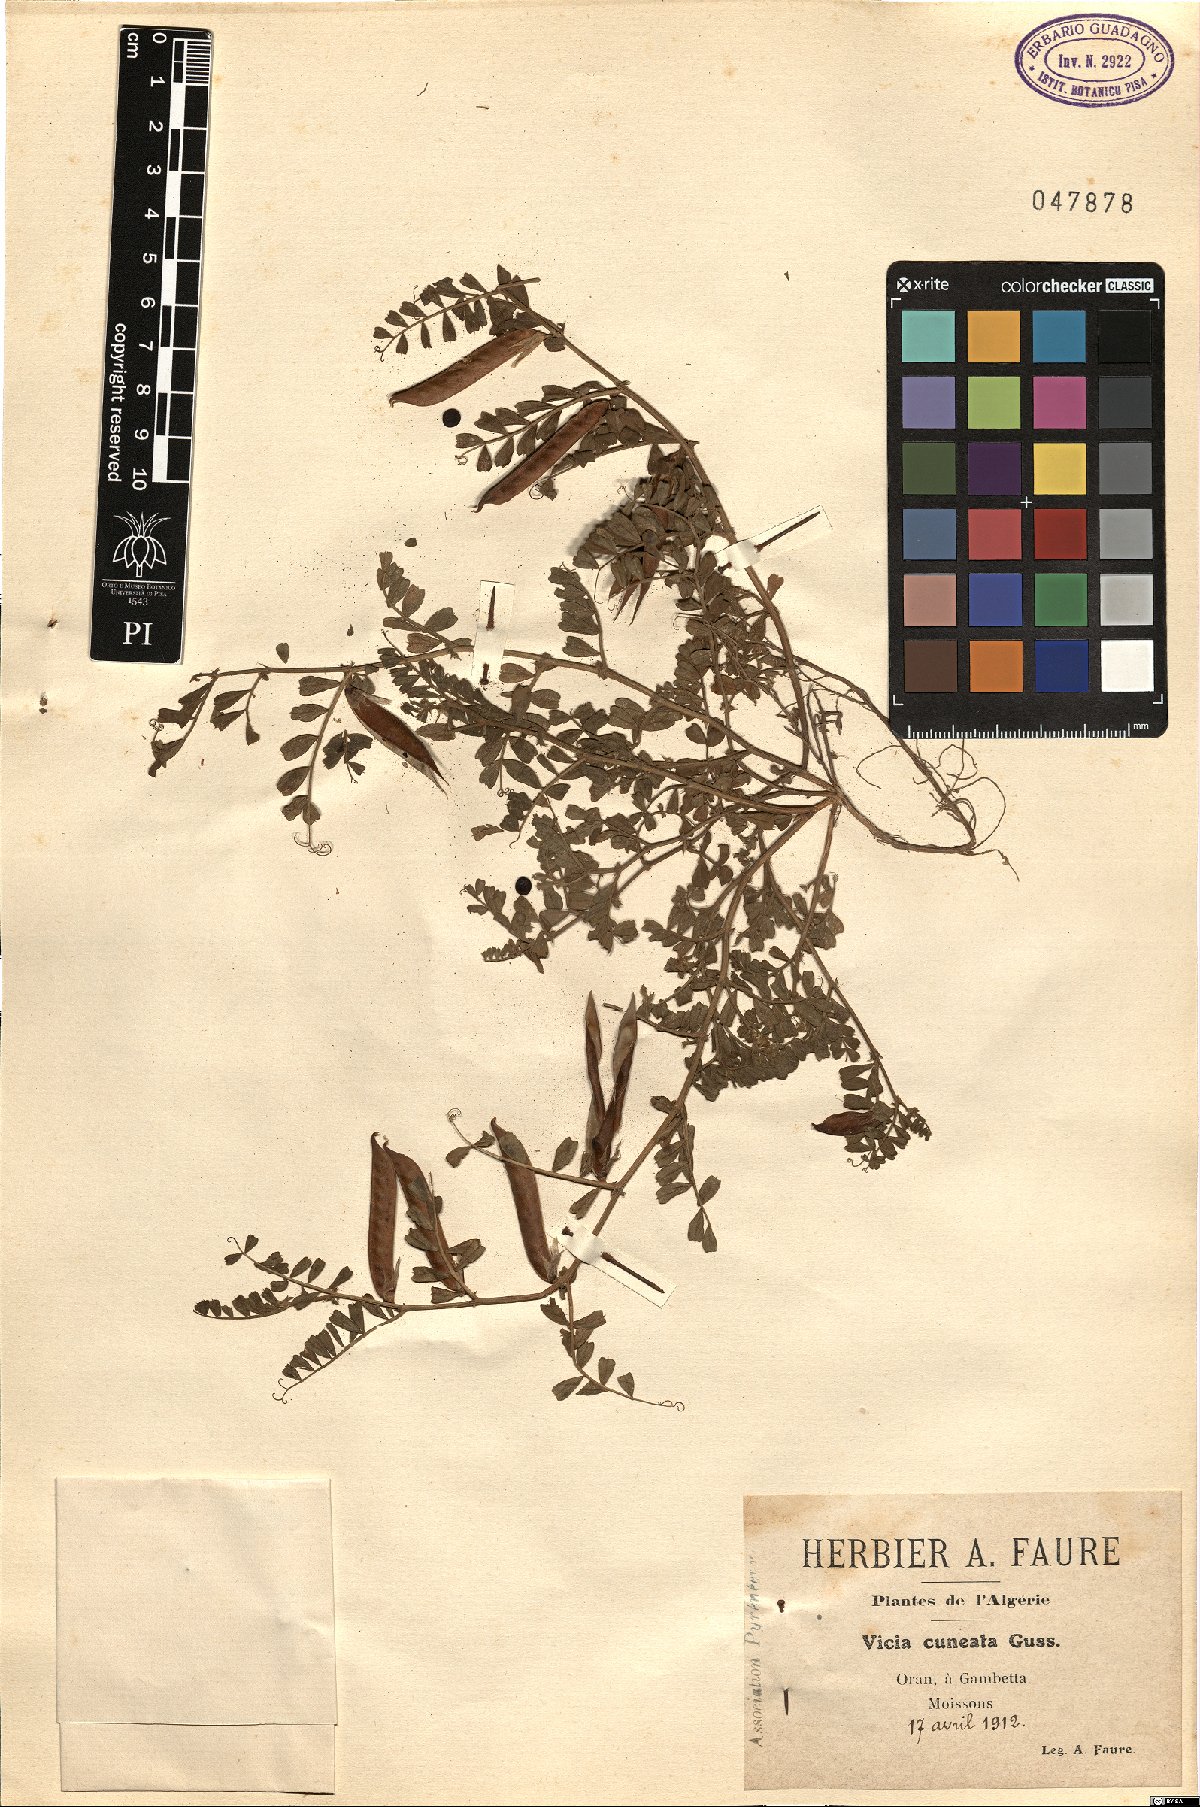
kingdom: Plantae
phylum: Tracheophyta
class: Magnoliopsida
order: Fabales
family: Fabaceae
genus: Vicia
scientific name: Vicia sativa
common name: Garden vetch
